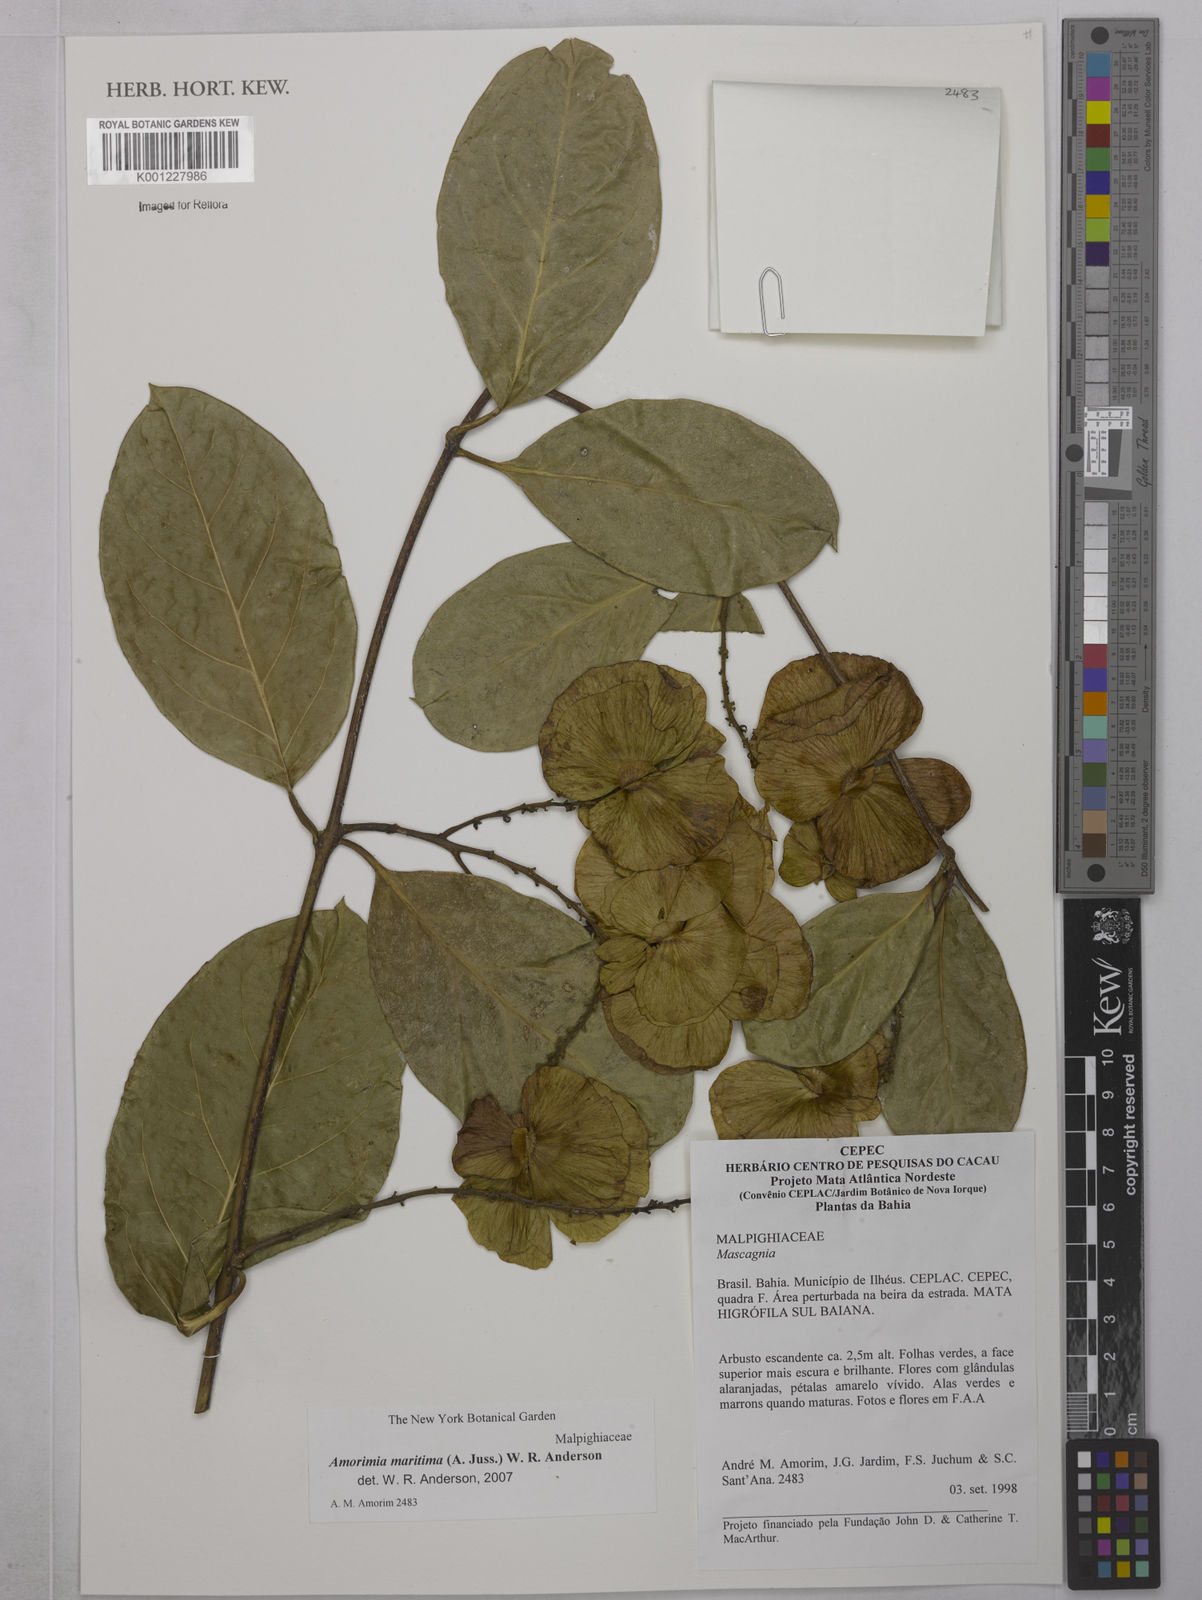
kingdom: Plantae
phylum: Tracheophyta
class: Magnoliopsida
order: Malpighiales
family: Malpighiaceae
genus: Amorimia
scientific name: Amorimia maritima
